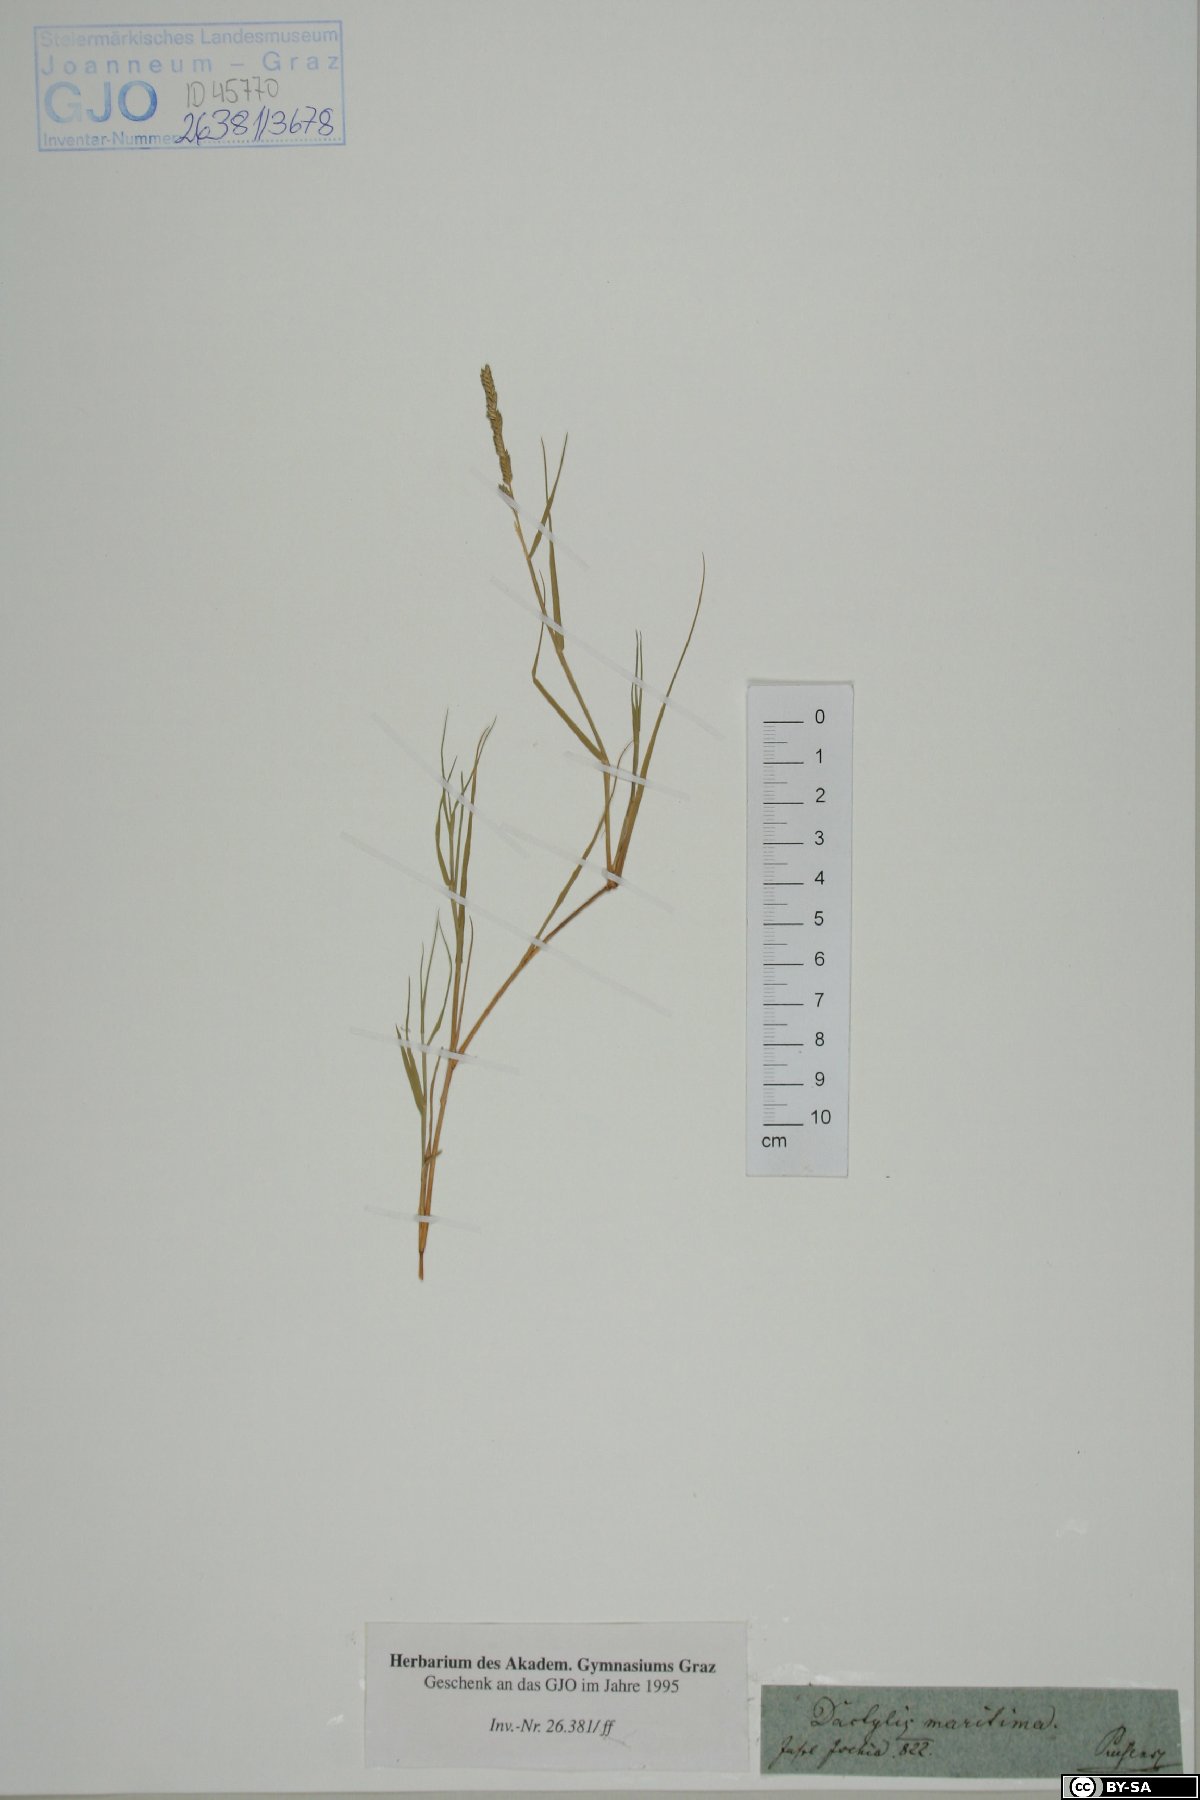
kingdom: Plantae
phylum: Tracheophyta
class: Liliopsida
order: Poales
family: Poaceae
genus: Aeluropus
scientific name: Aeluropus littoralis
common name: Indian walnut
